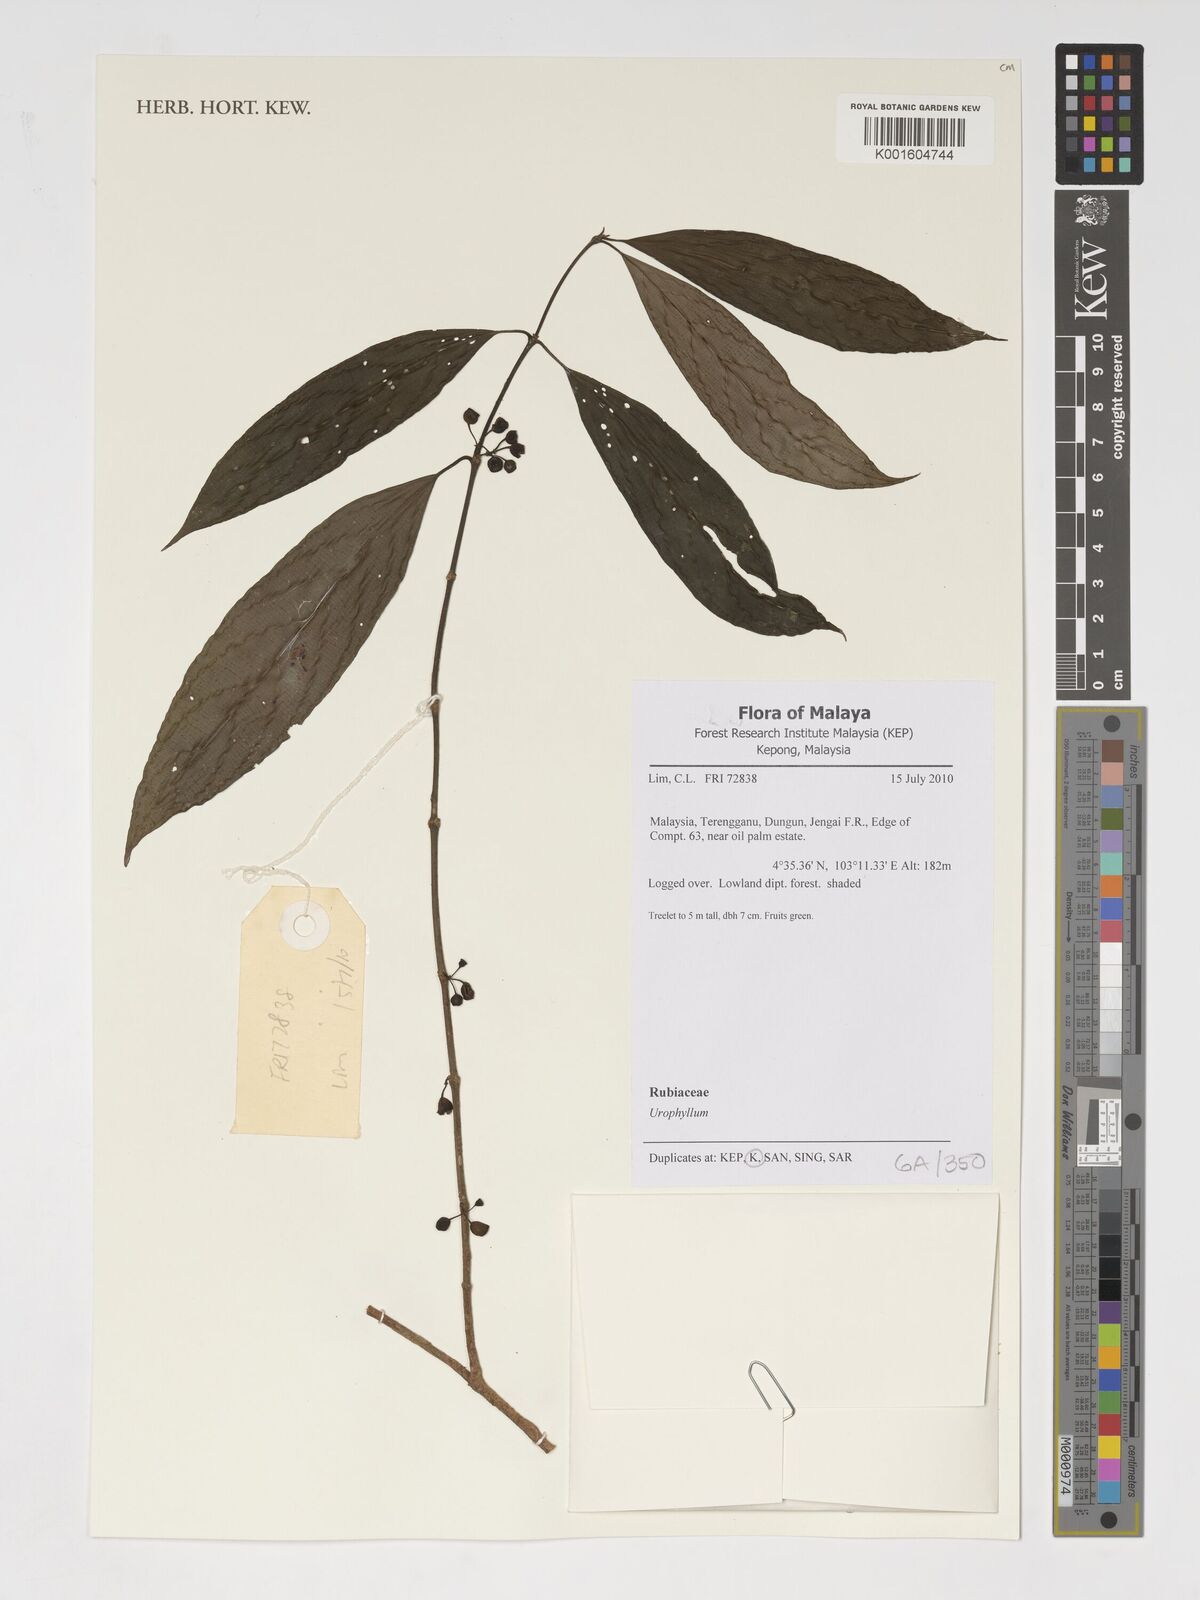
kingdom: Plantae
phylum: Tracheophyta
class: Magnoliopsida
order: Gentianales
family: Rubiaceae
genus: Urophyllum
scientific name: Urophyllum
